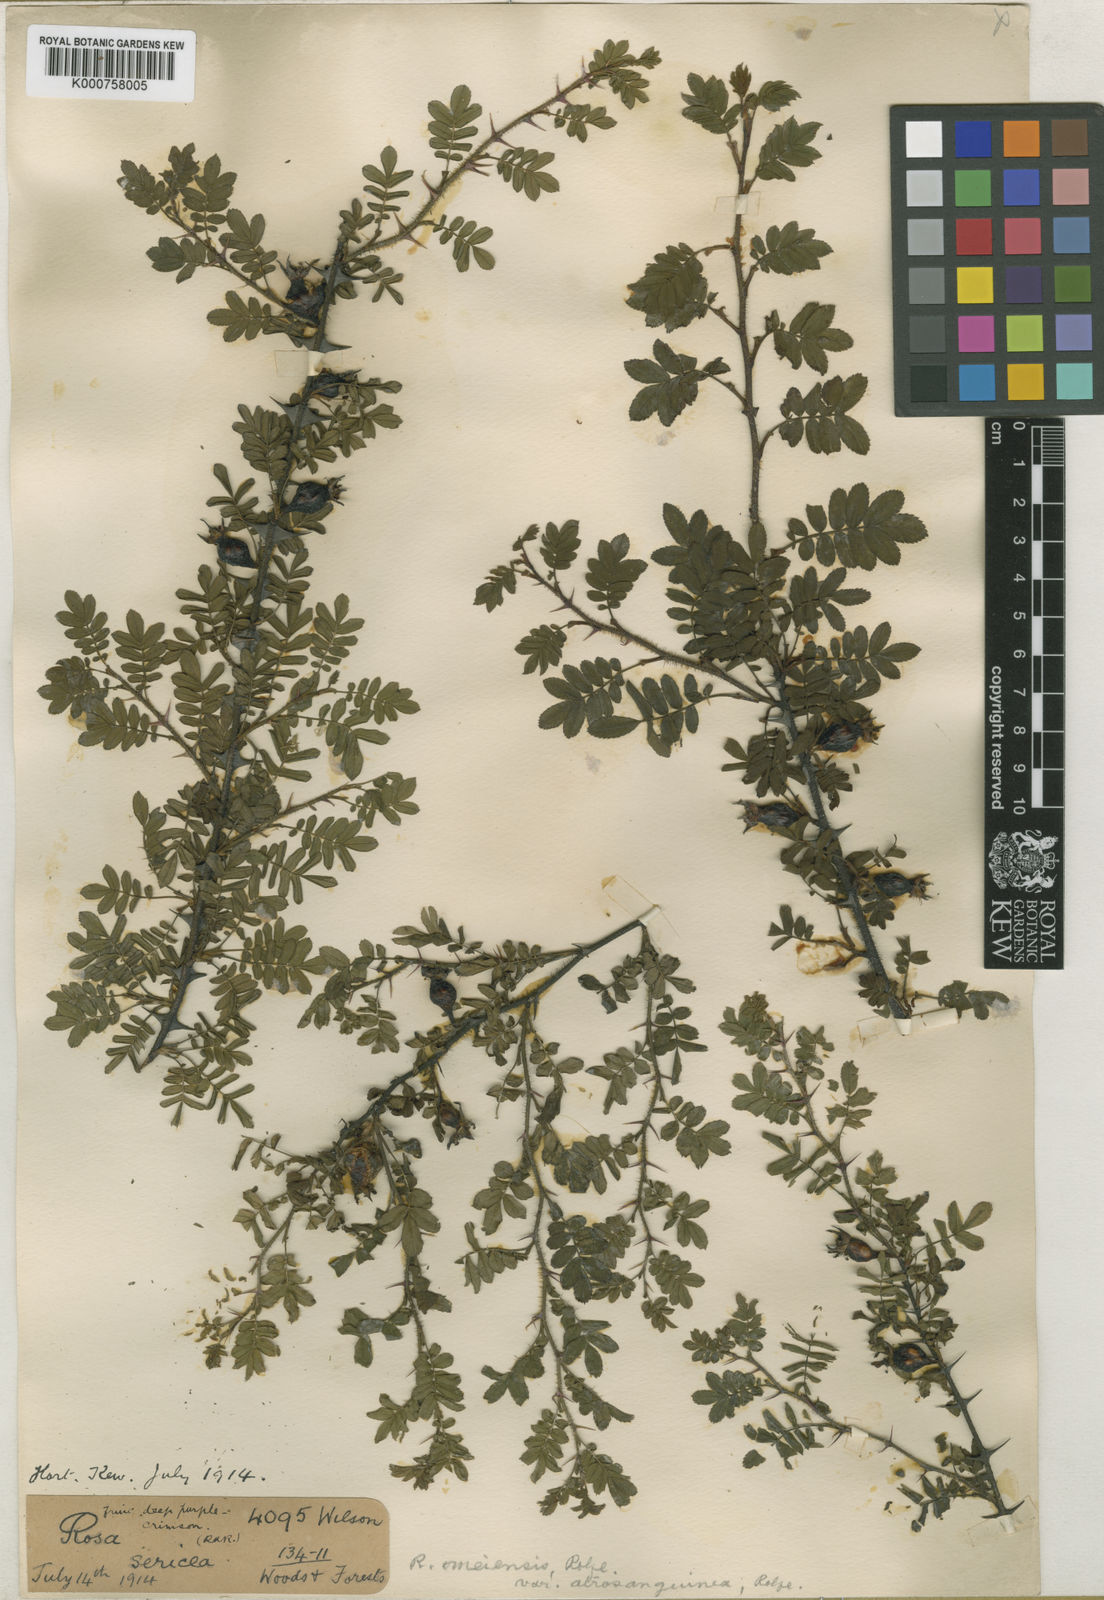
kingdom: Plantae
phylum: Tracheophyta
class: Magnoliopsida
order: Rosales
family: Rosaceae
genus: Rosa
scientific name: Rosa omeiensis
